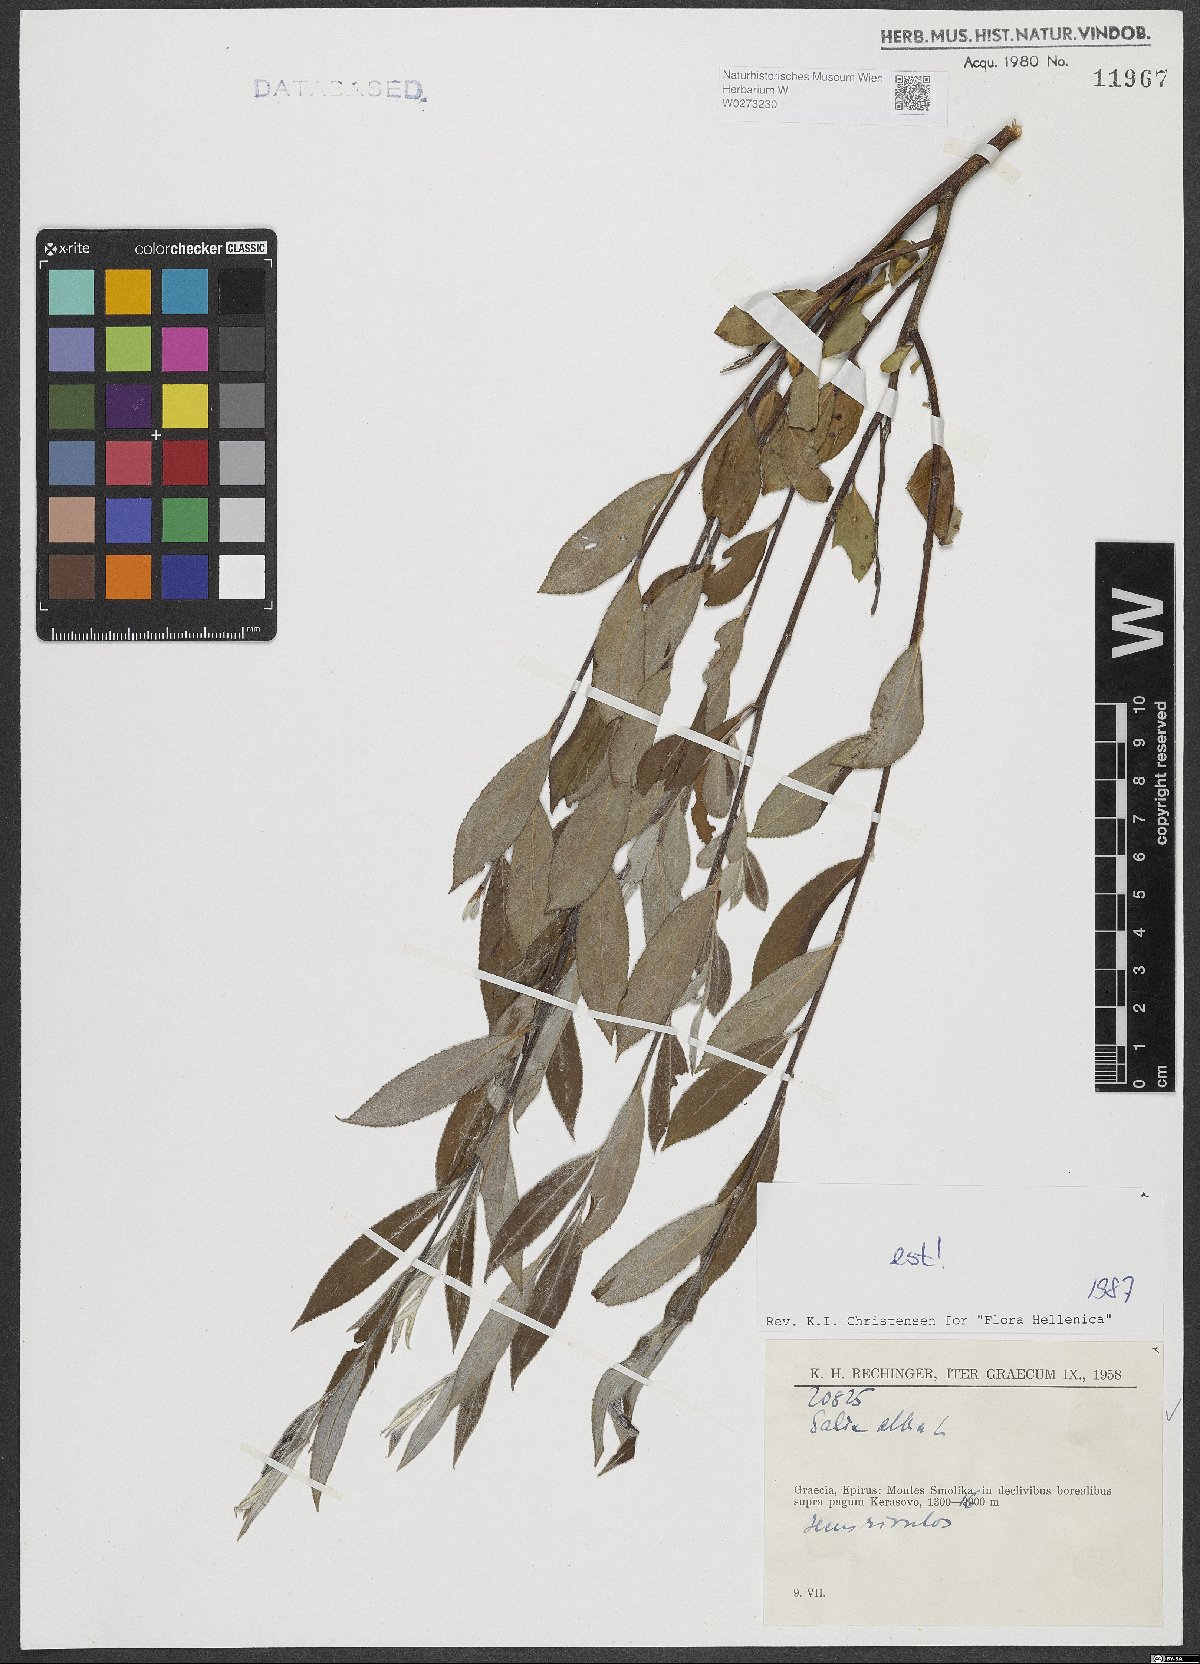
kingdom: Plantae
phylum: Tracheophyta
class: Magnoliopsida
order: Malpighiales
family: Salicaceae
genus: Salix
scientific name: Salix alba
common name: White willow
